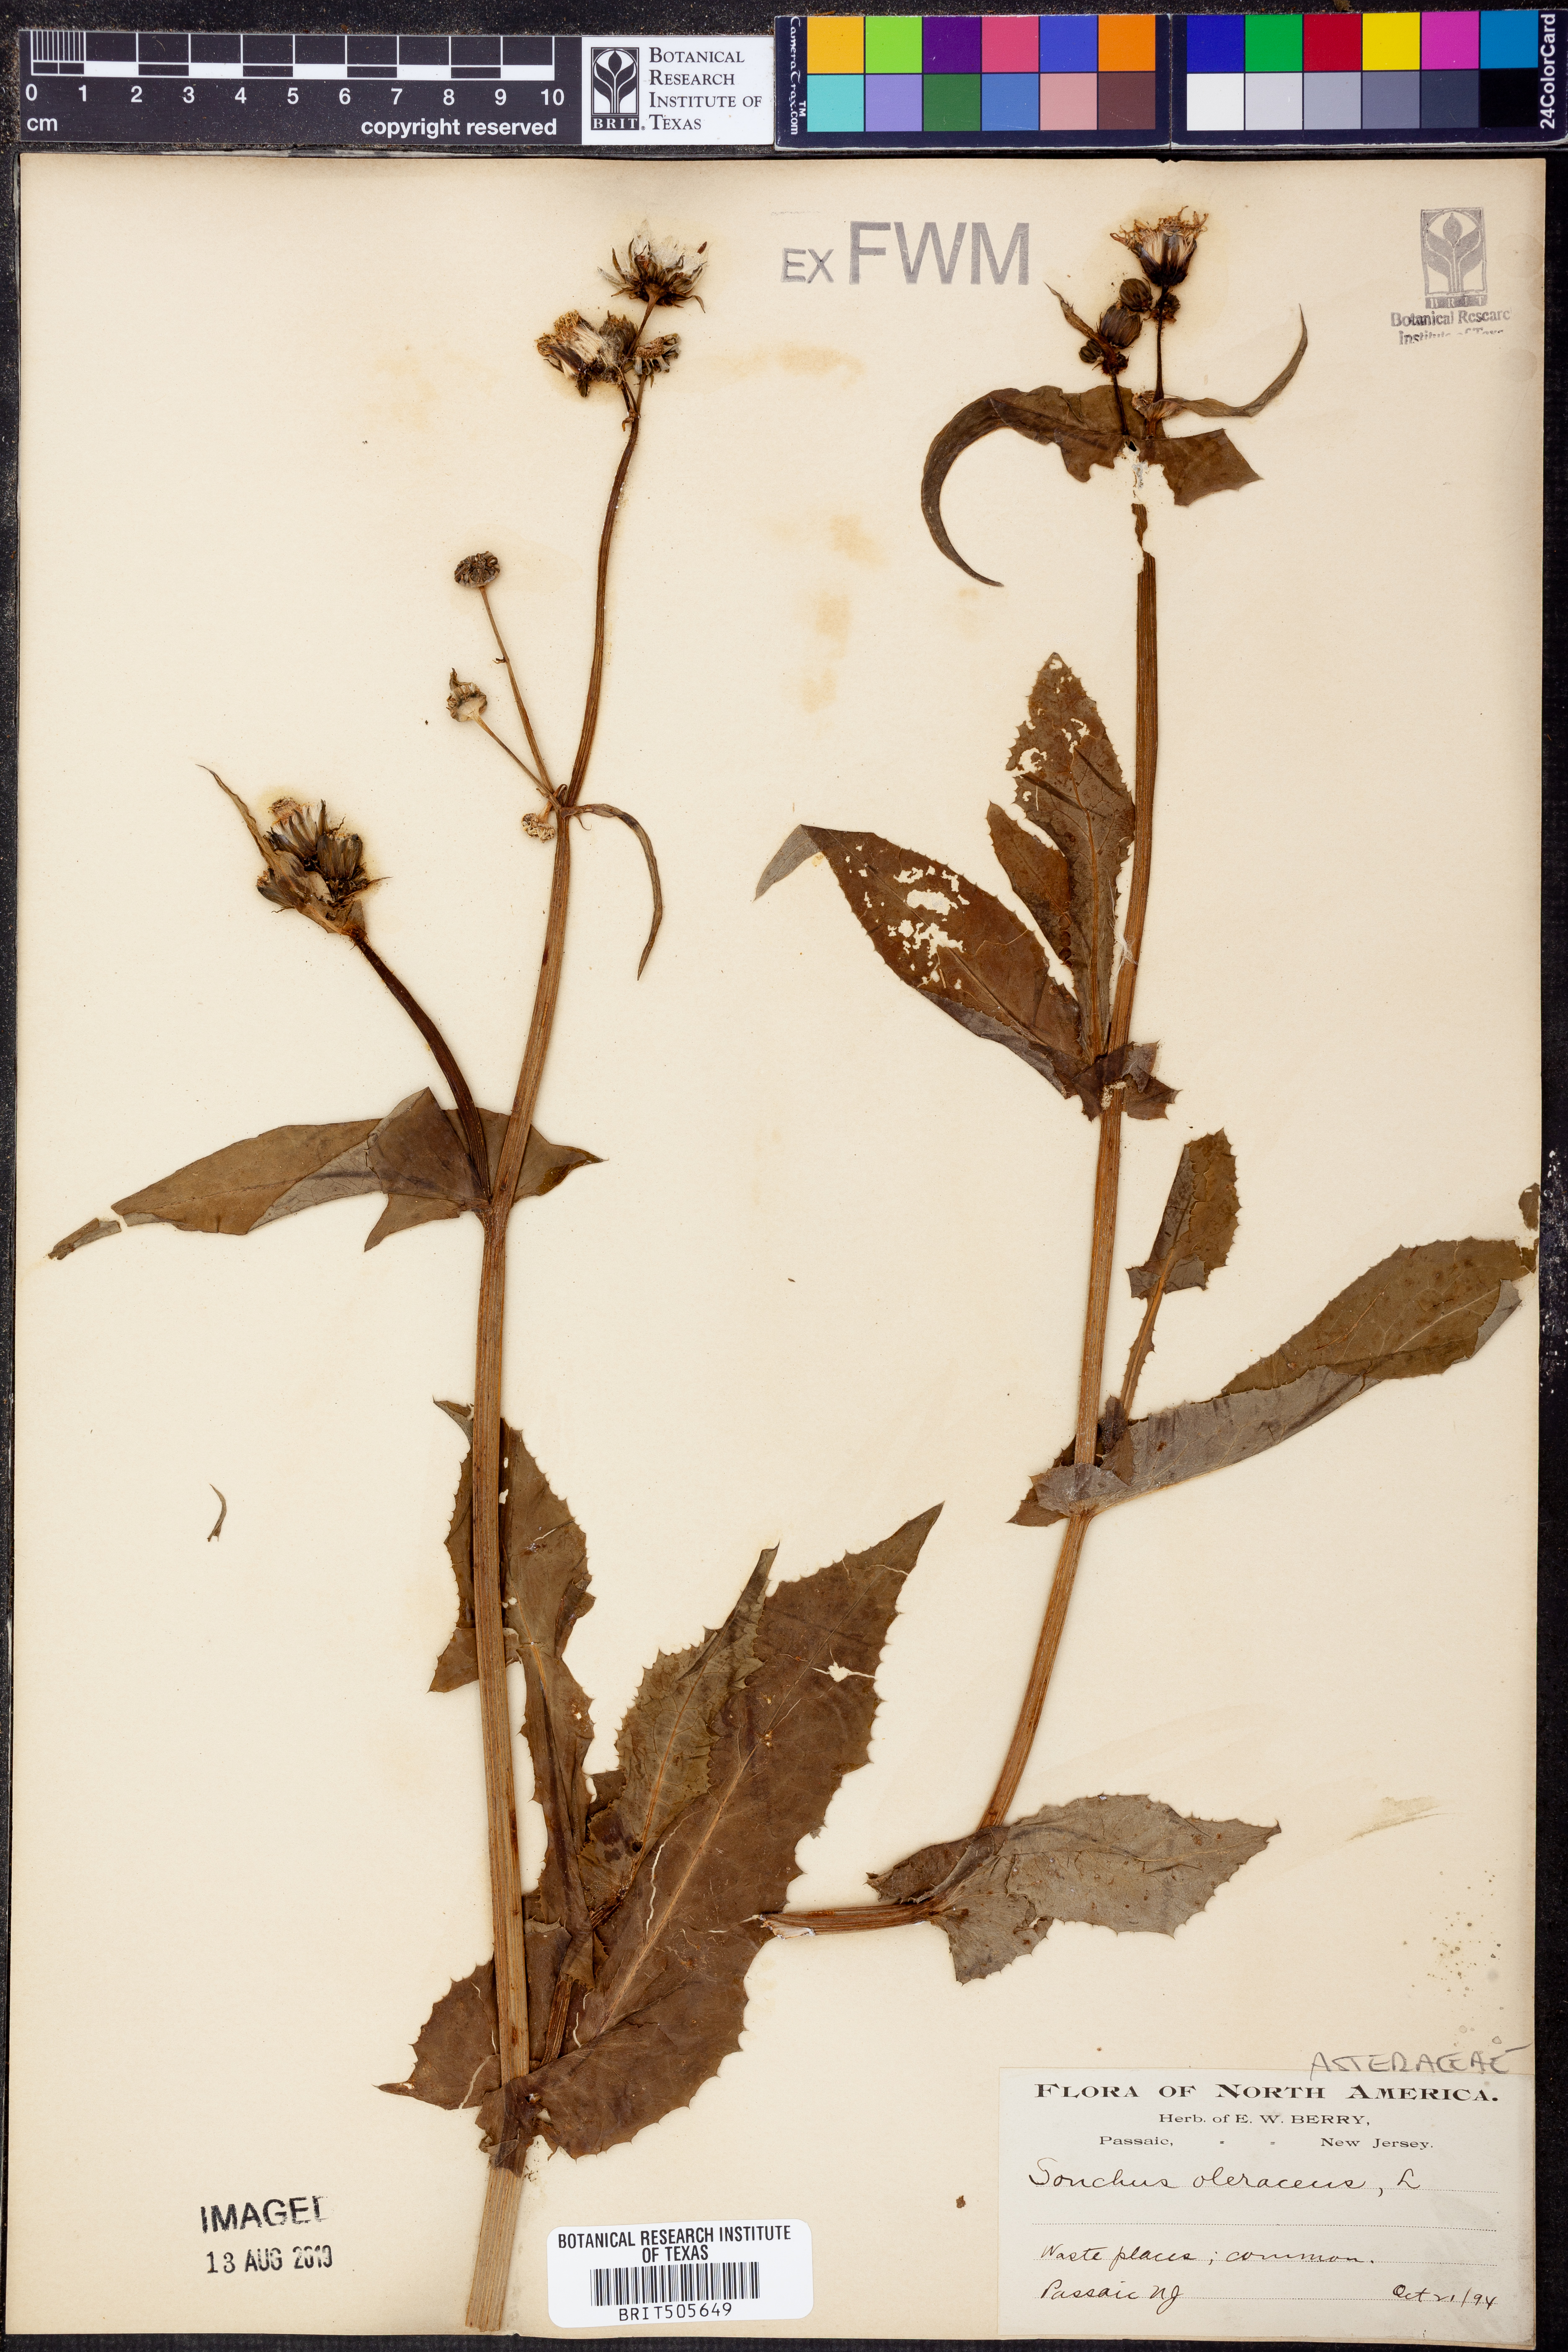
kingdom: Plantae
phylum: Tracheophyta
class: Magnoliopsida
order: Asterales
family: Asteraceae
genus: Sonchus
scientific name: Sonchus oleraceus
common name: Common sowthistle
